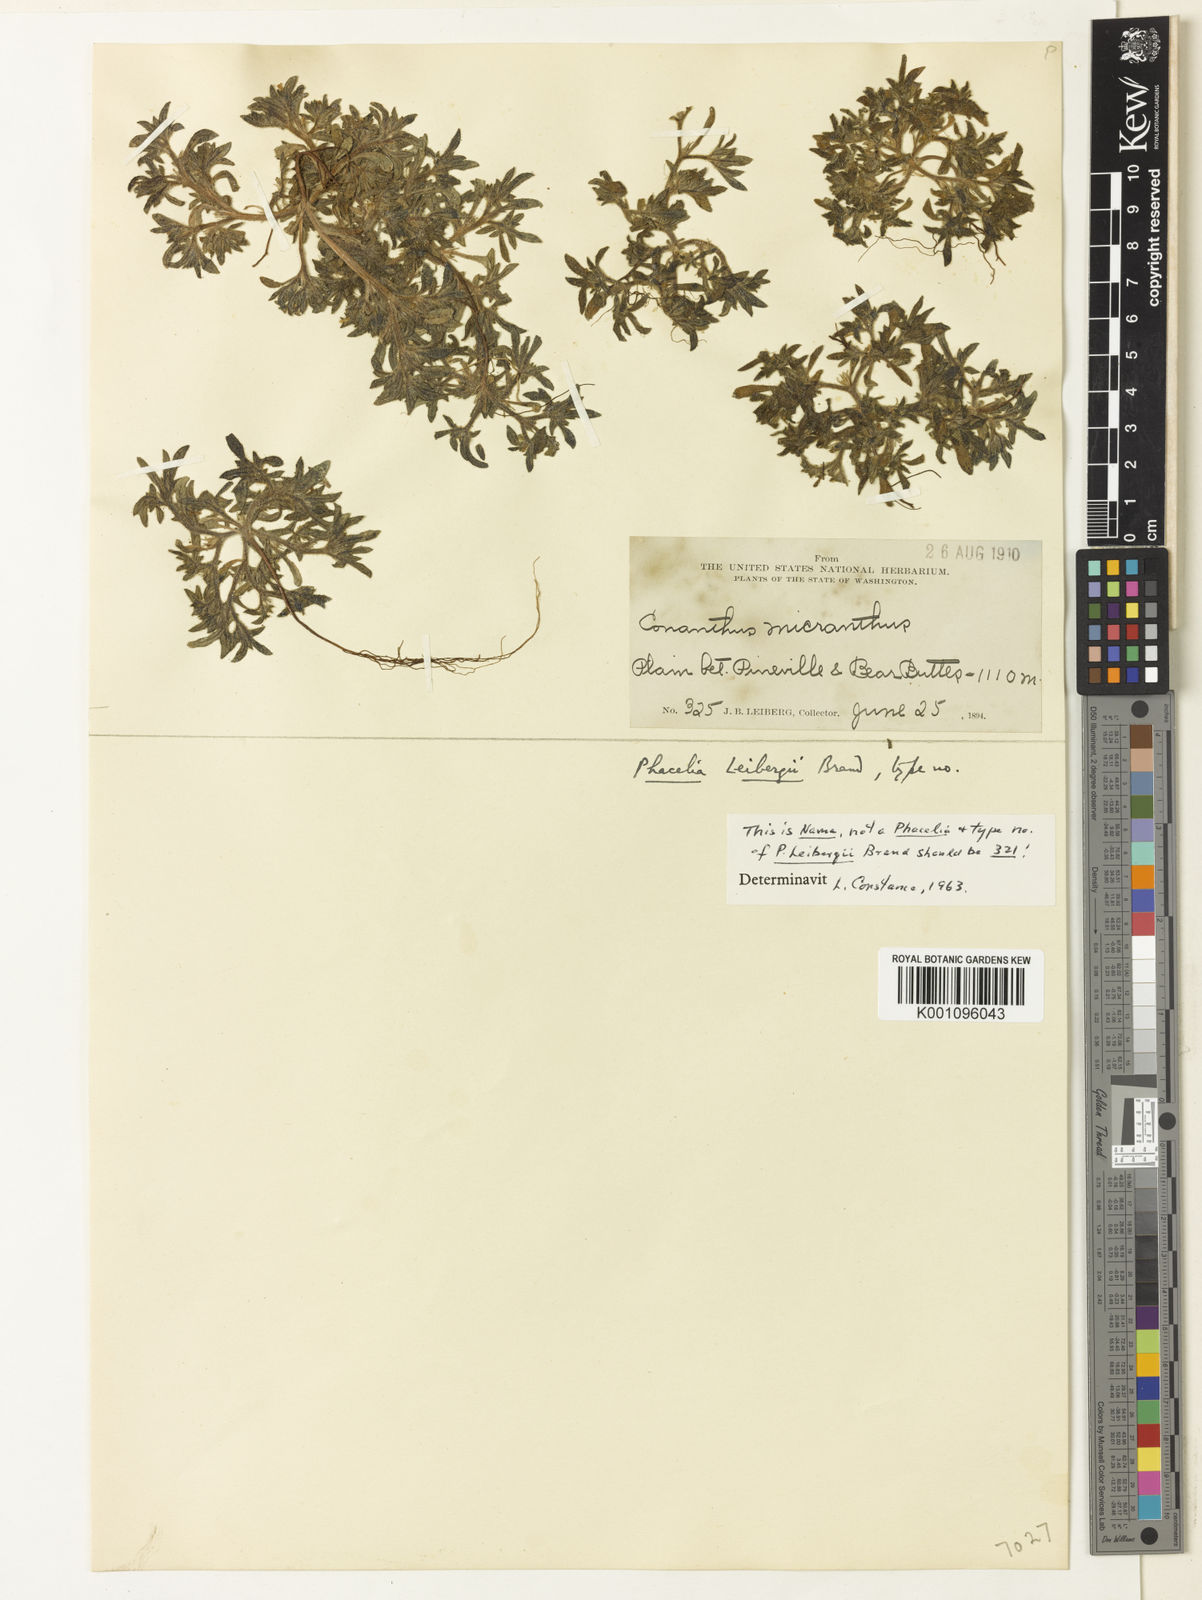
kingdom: Plantae
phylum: Tracheophyta
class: Magnoliopsida
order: Boraginales
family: Hydrophyllaceae
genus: Phacelia
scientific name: Phacelia leibergii
